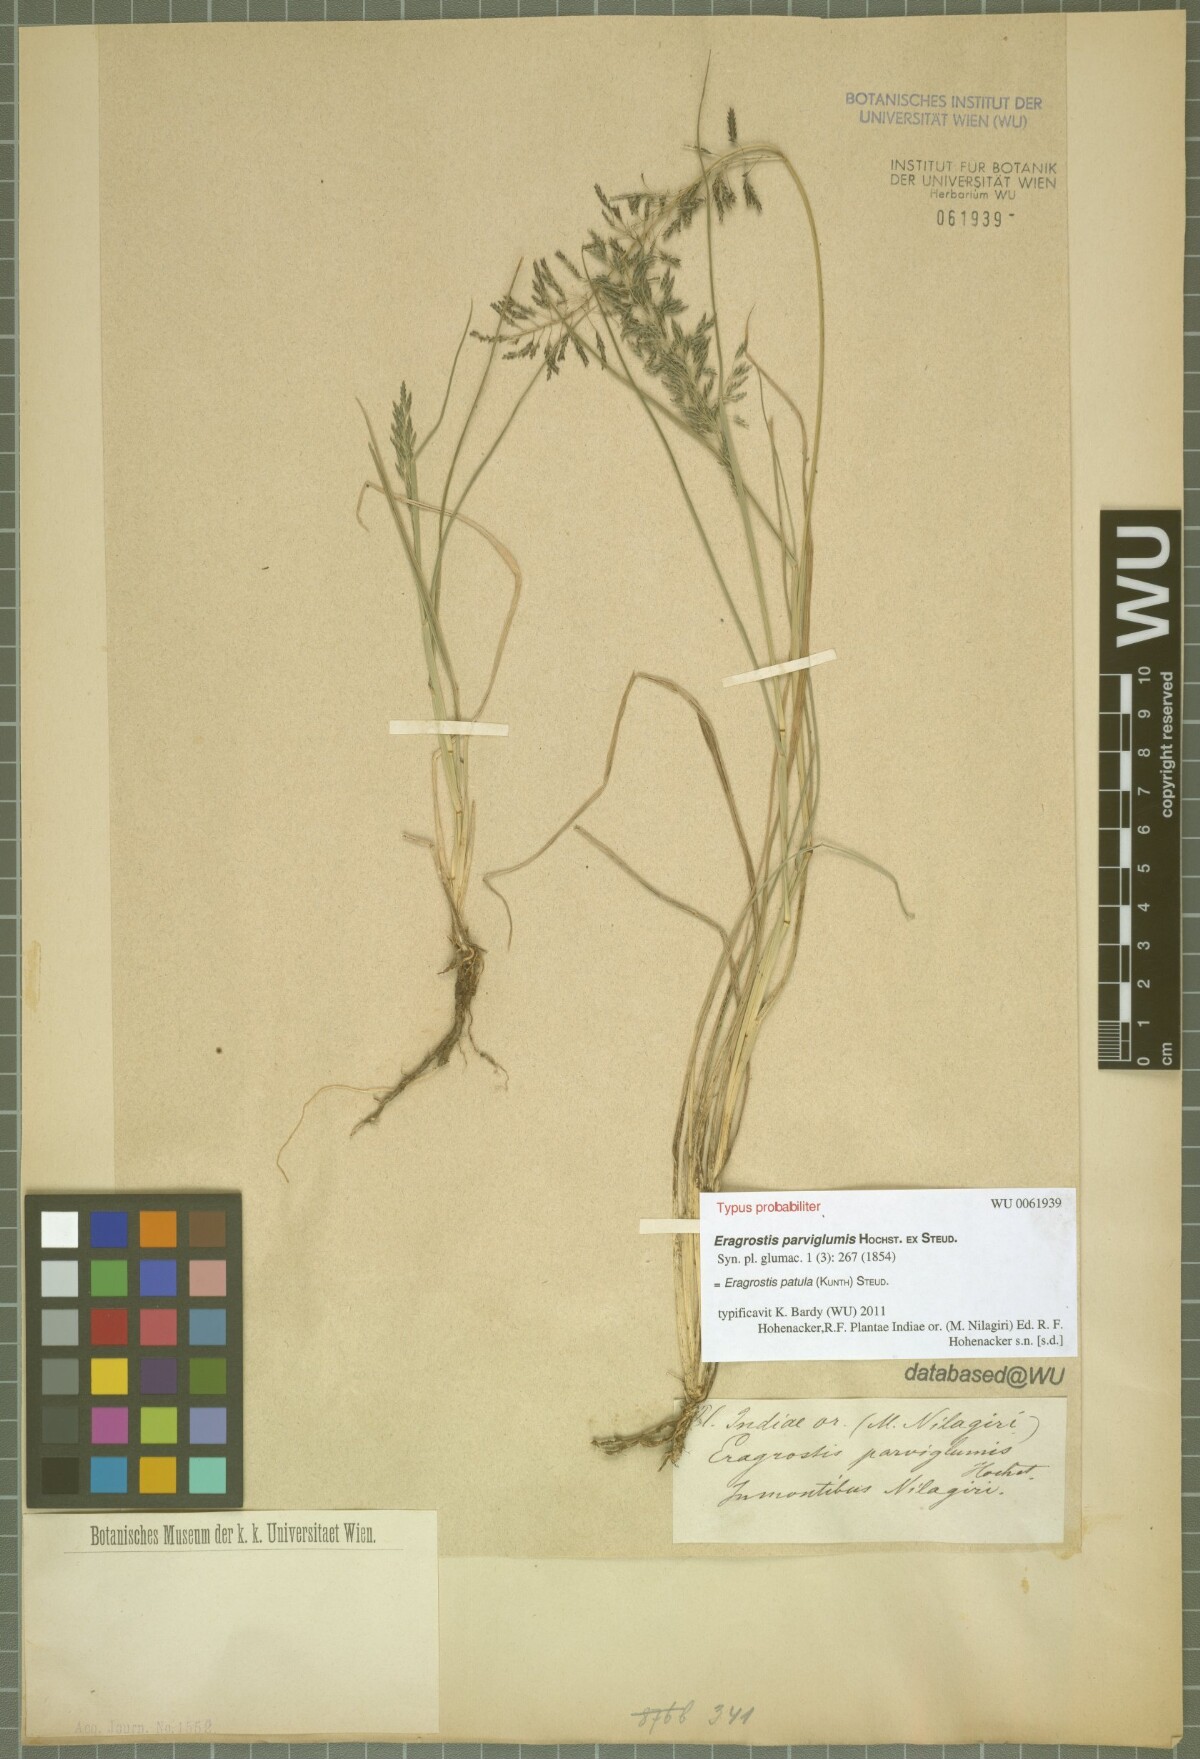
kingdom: Plantae
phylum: Tracheophyta
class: Liliopsida
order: Poales
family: Poaceae
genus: Eragrostis
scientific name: Eragrostis tenuifolia
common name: Elastic grass
